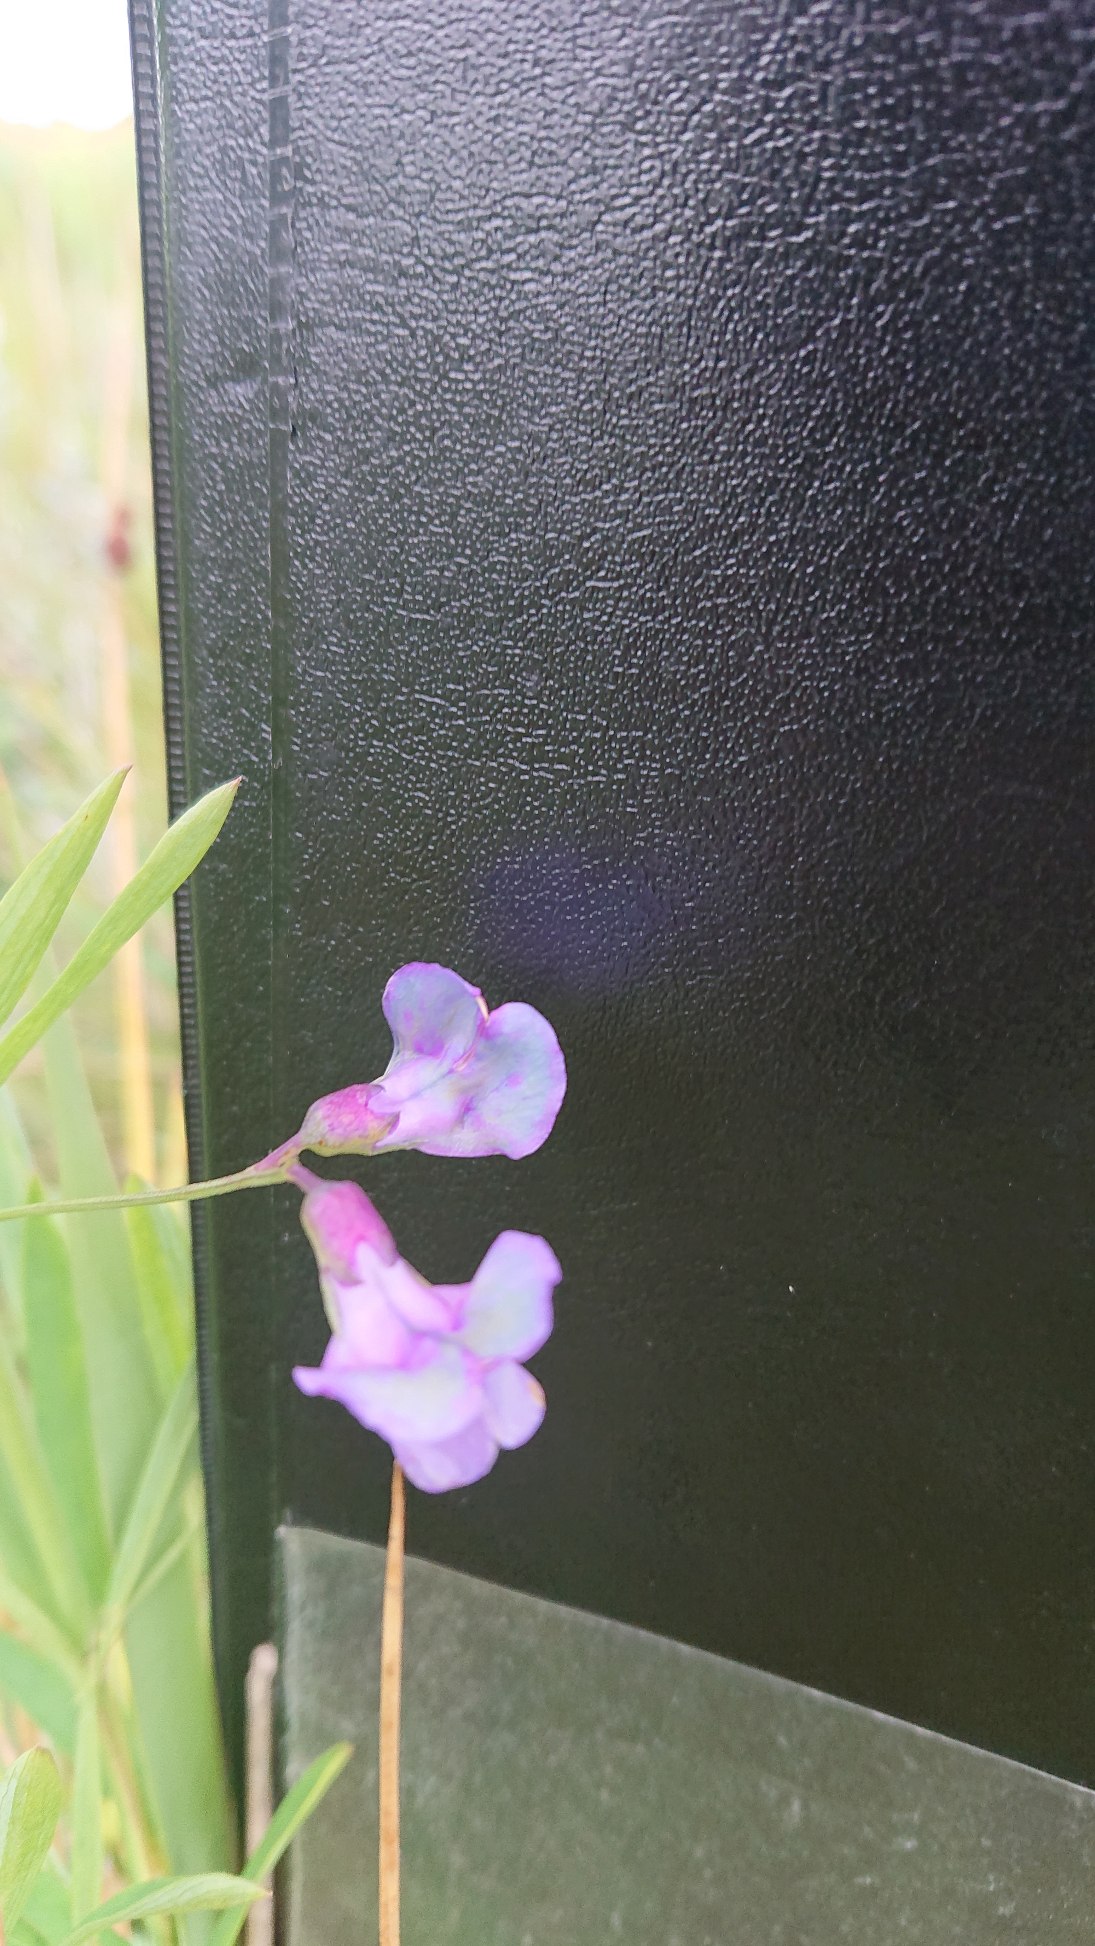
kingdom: Plantae
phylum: Tracheophyta
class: Magnoliopsida
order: Fabales
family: Fabaceae
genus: Lathyrus
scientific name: Lathyrus palustris
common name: Kær-fladbælg
